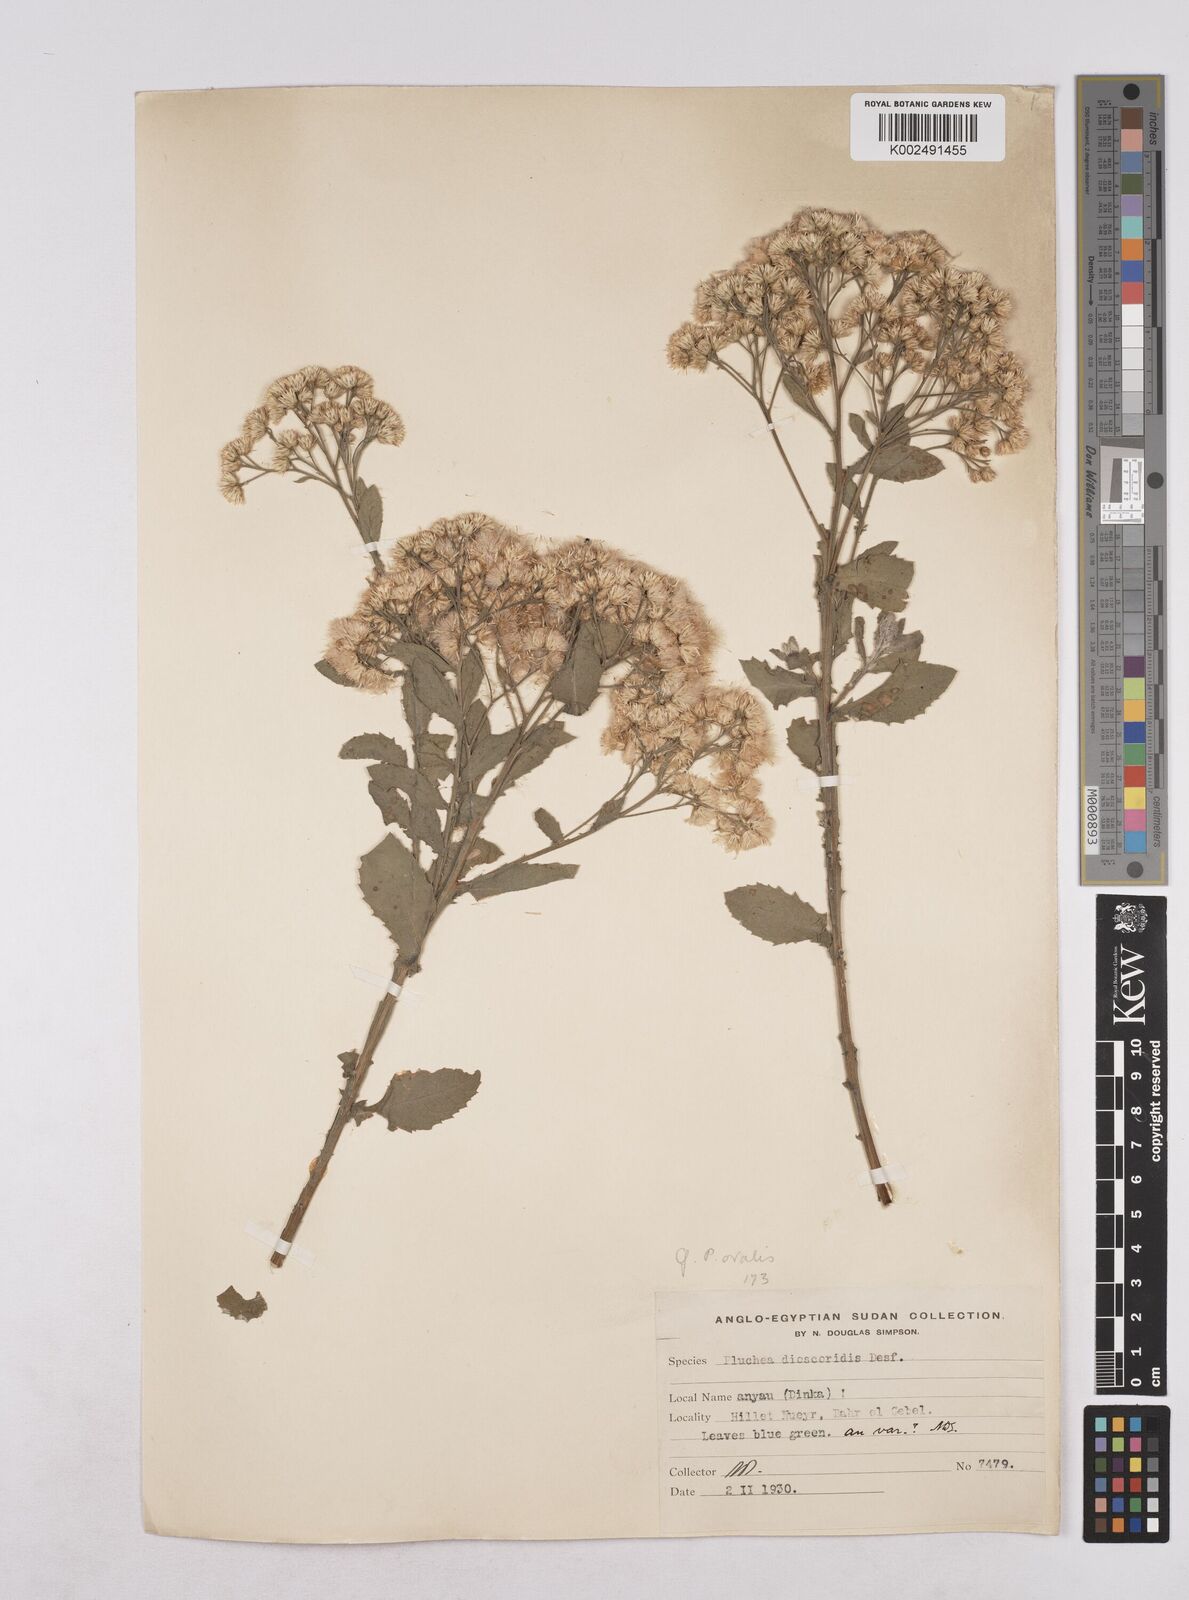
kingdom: Plantae
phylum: Tracheophyta
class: Magnoliopsida
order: Asterales
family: Asteraceae
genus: Pluchea
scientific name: Pluchea ovalis
